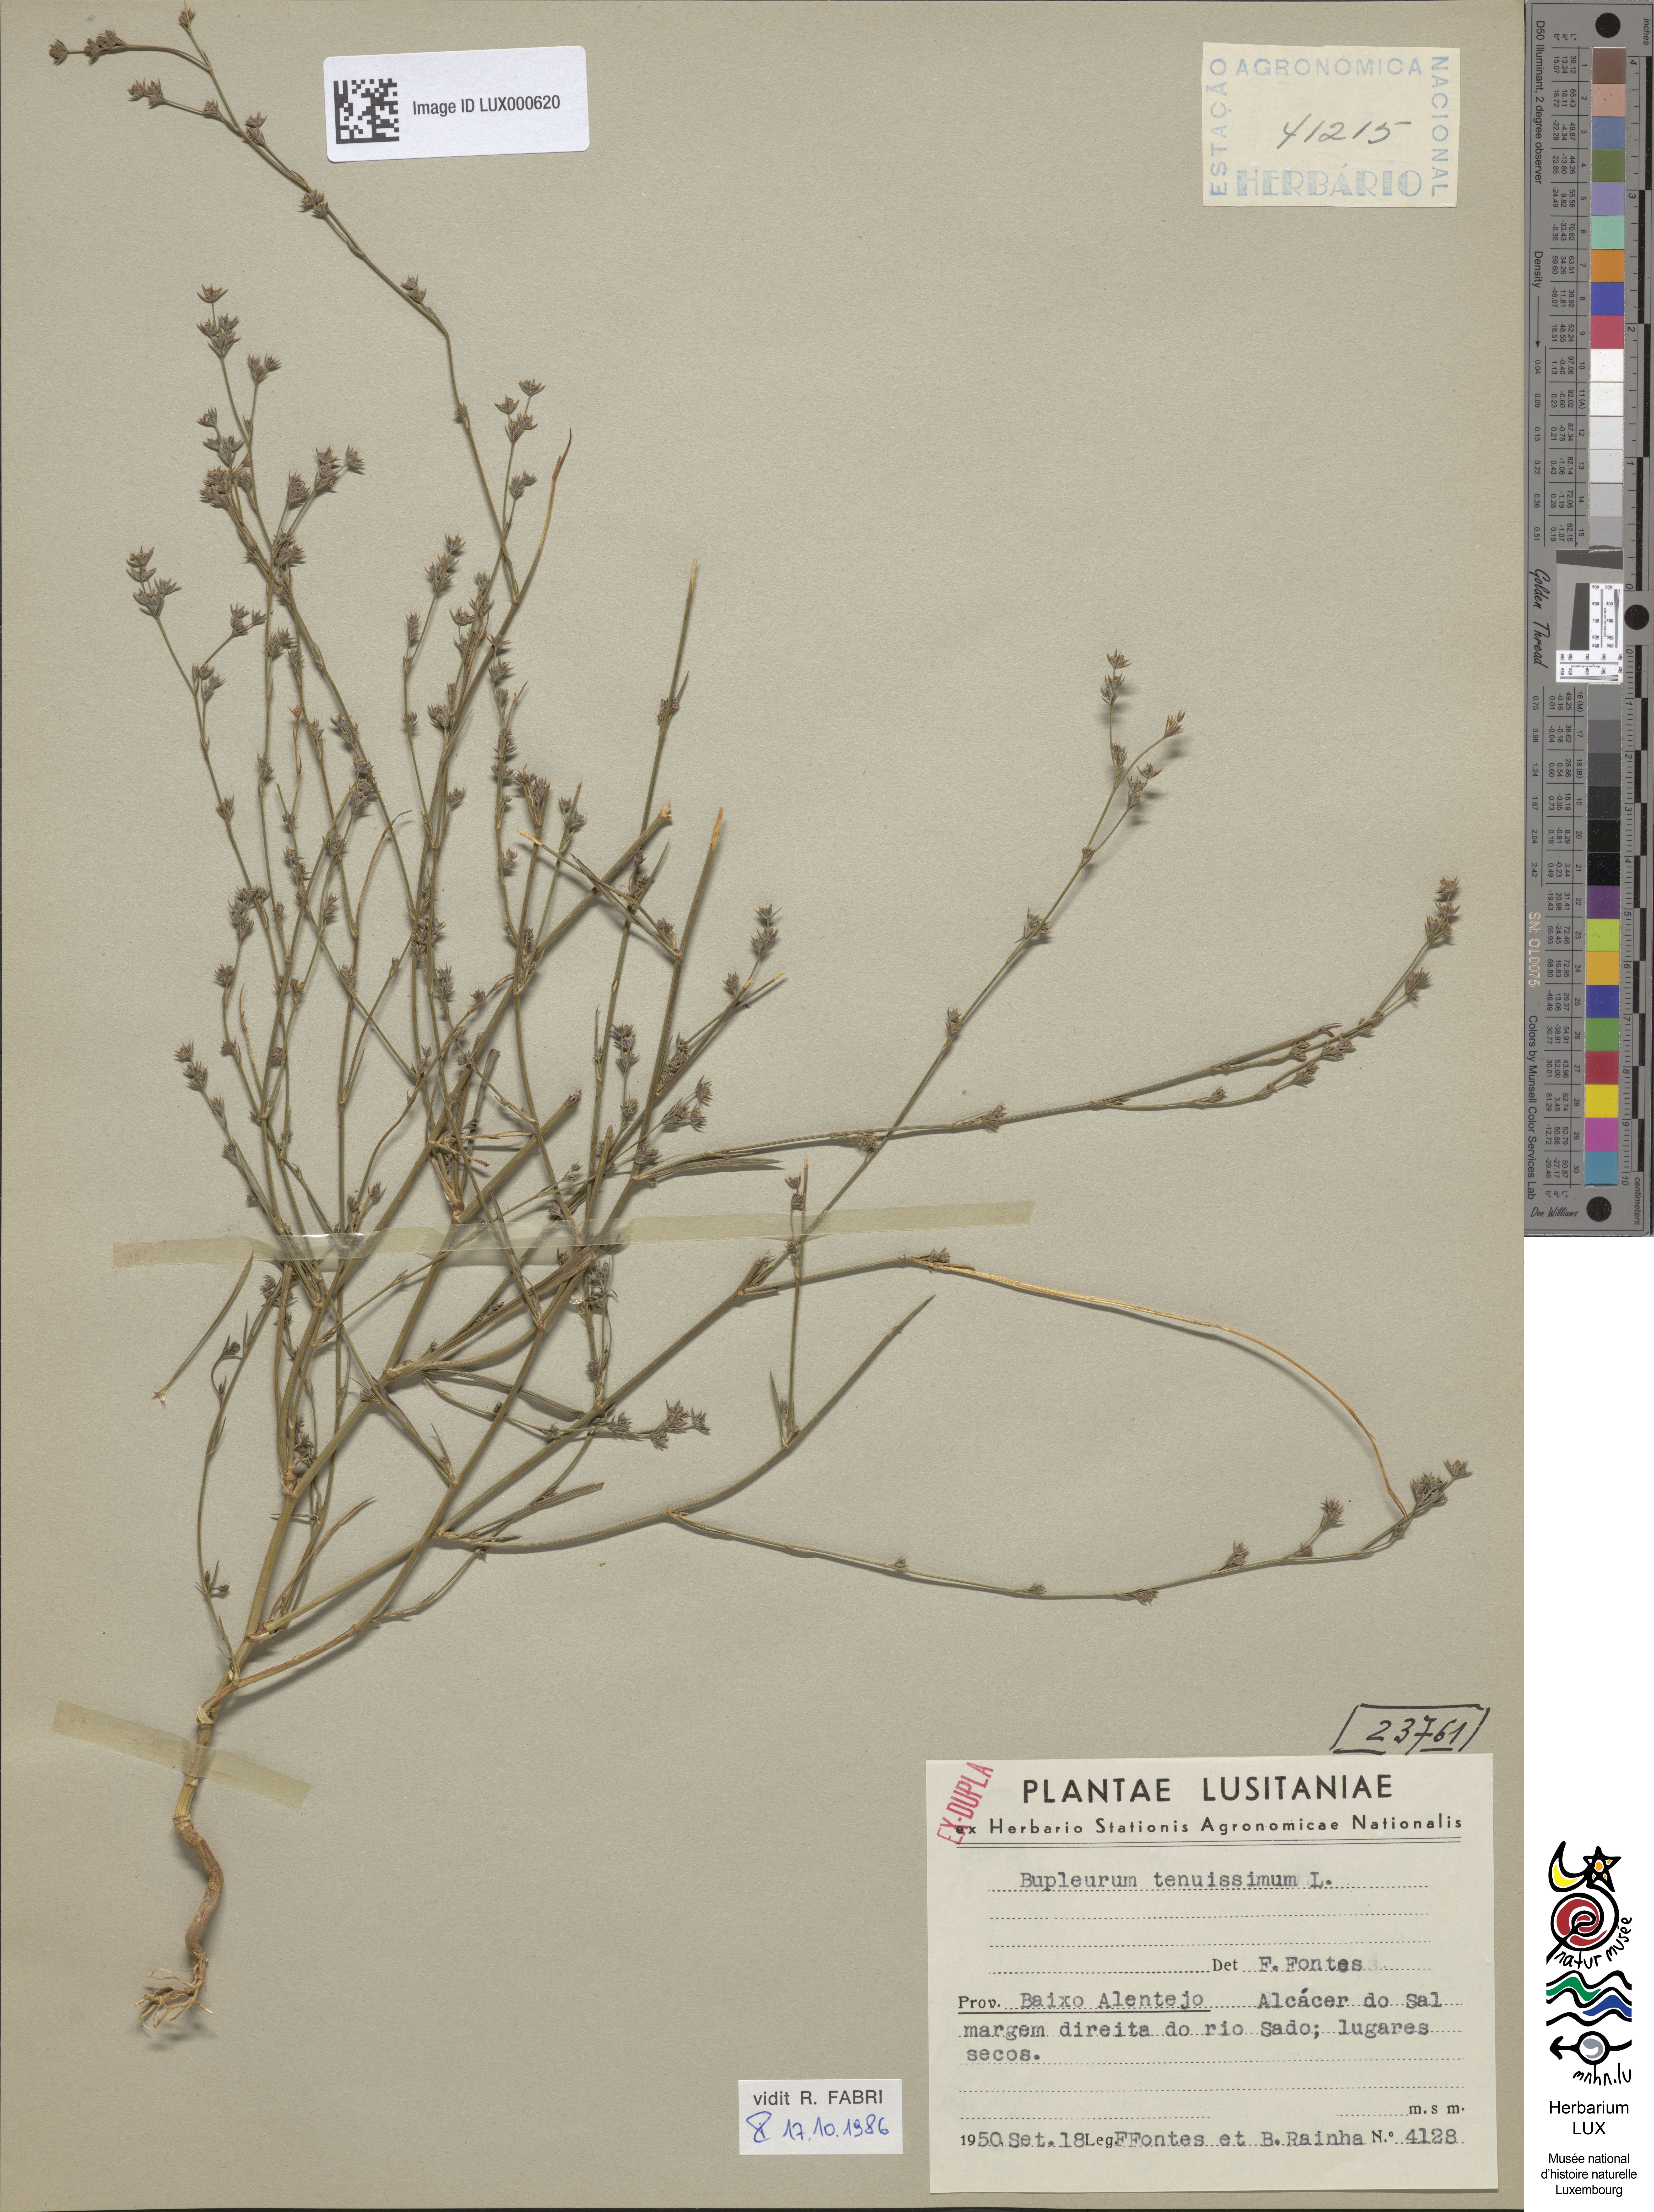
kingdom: Plantae
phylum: Tracheophyta
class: Magnoliopsida
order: Apiales
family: Apiaceae
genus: Bupleurum
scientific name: Bupleurum tenuissimum
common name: Slender hare's-ear
